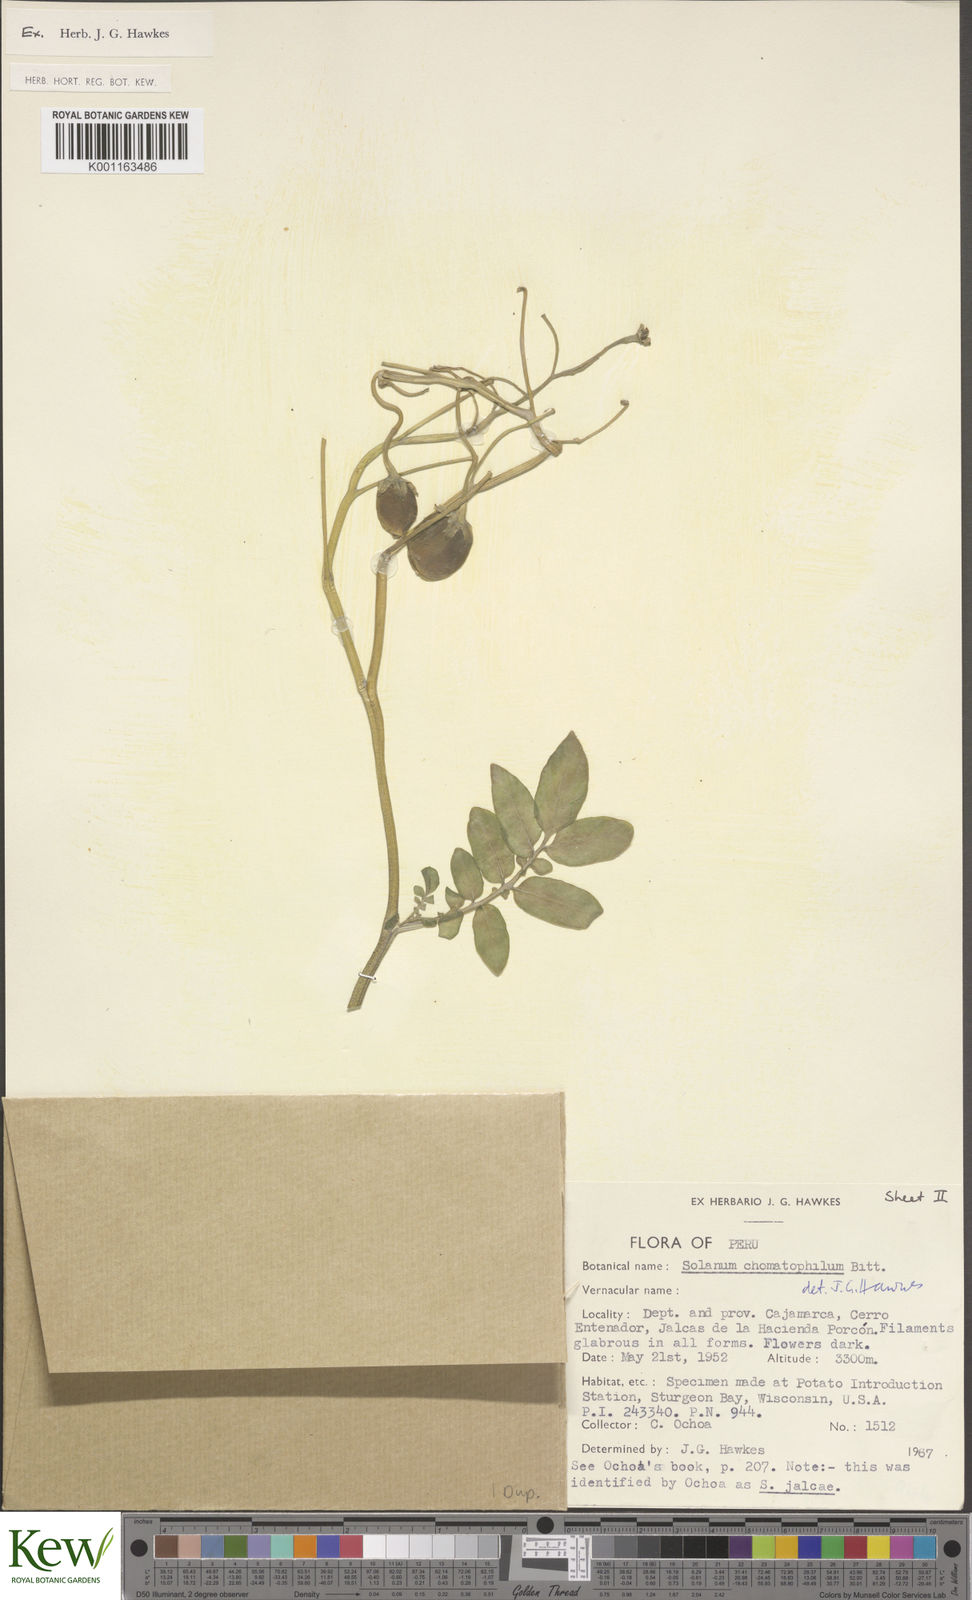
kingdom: Plantae
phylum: Tracheophyta
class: Magnoliopsida
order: Solanales
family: Solanaceae
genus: Solanum
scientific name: Solanum chomatophilum
